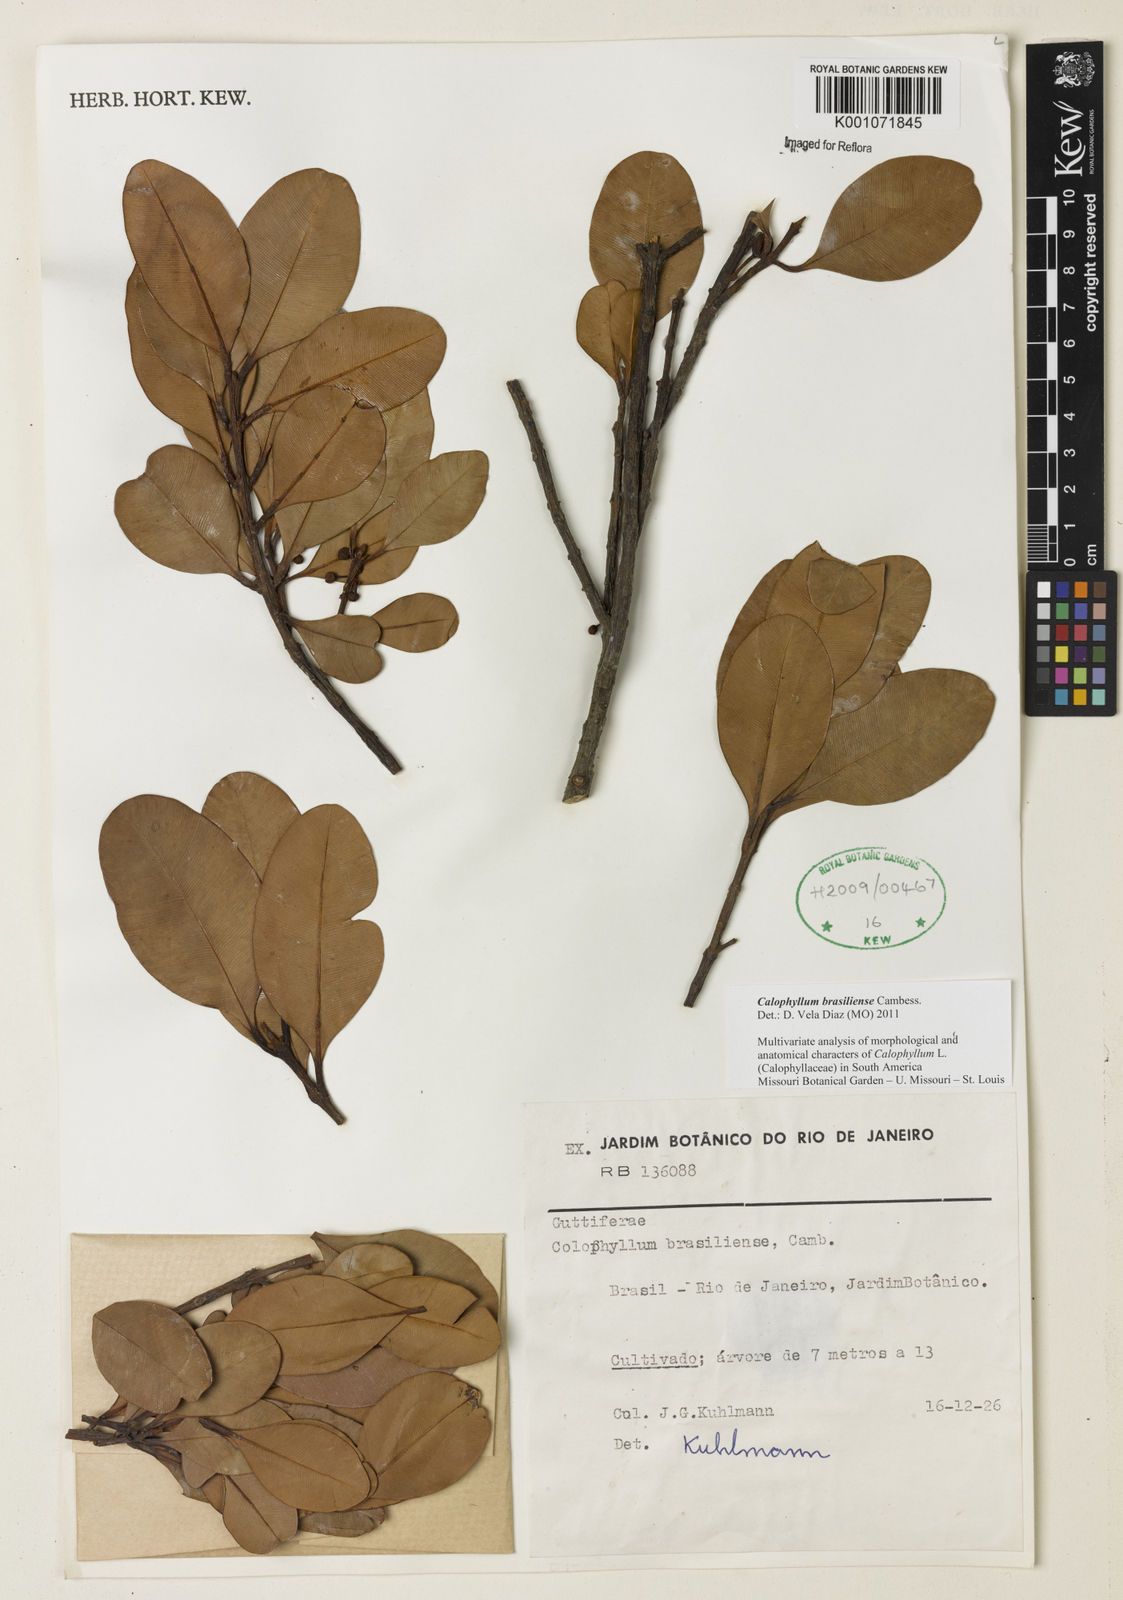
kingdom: Plantae
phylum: Tracheophyta
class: Magnoliopsida
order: Malpighiales
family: Calophyllaceae
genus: Calophyllum
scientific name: Calophyllum brasiliense
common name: Santa maria
